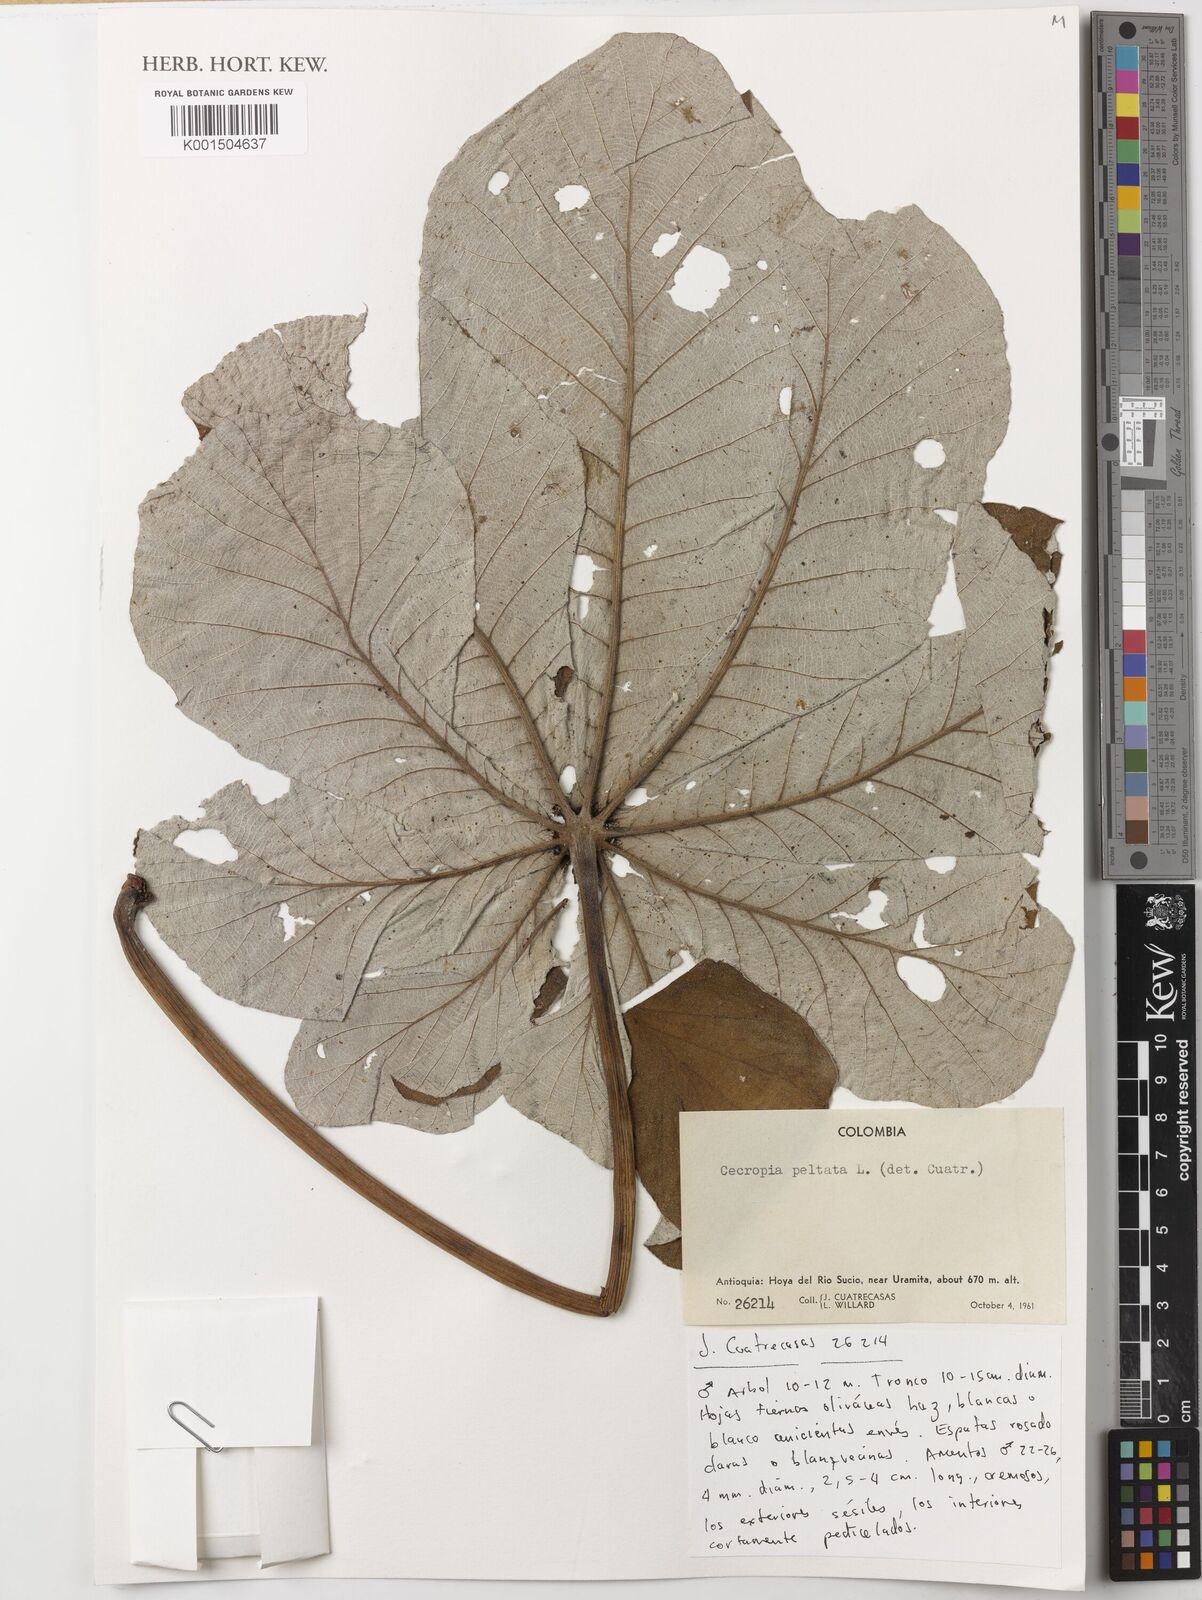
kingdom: Plantae
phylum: Tracheophyta
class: Magnoliopsida
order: Rosales
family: Urticaceae
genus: Cecropia
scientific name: Cecropia peltata
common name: Trumpet-tree
